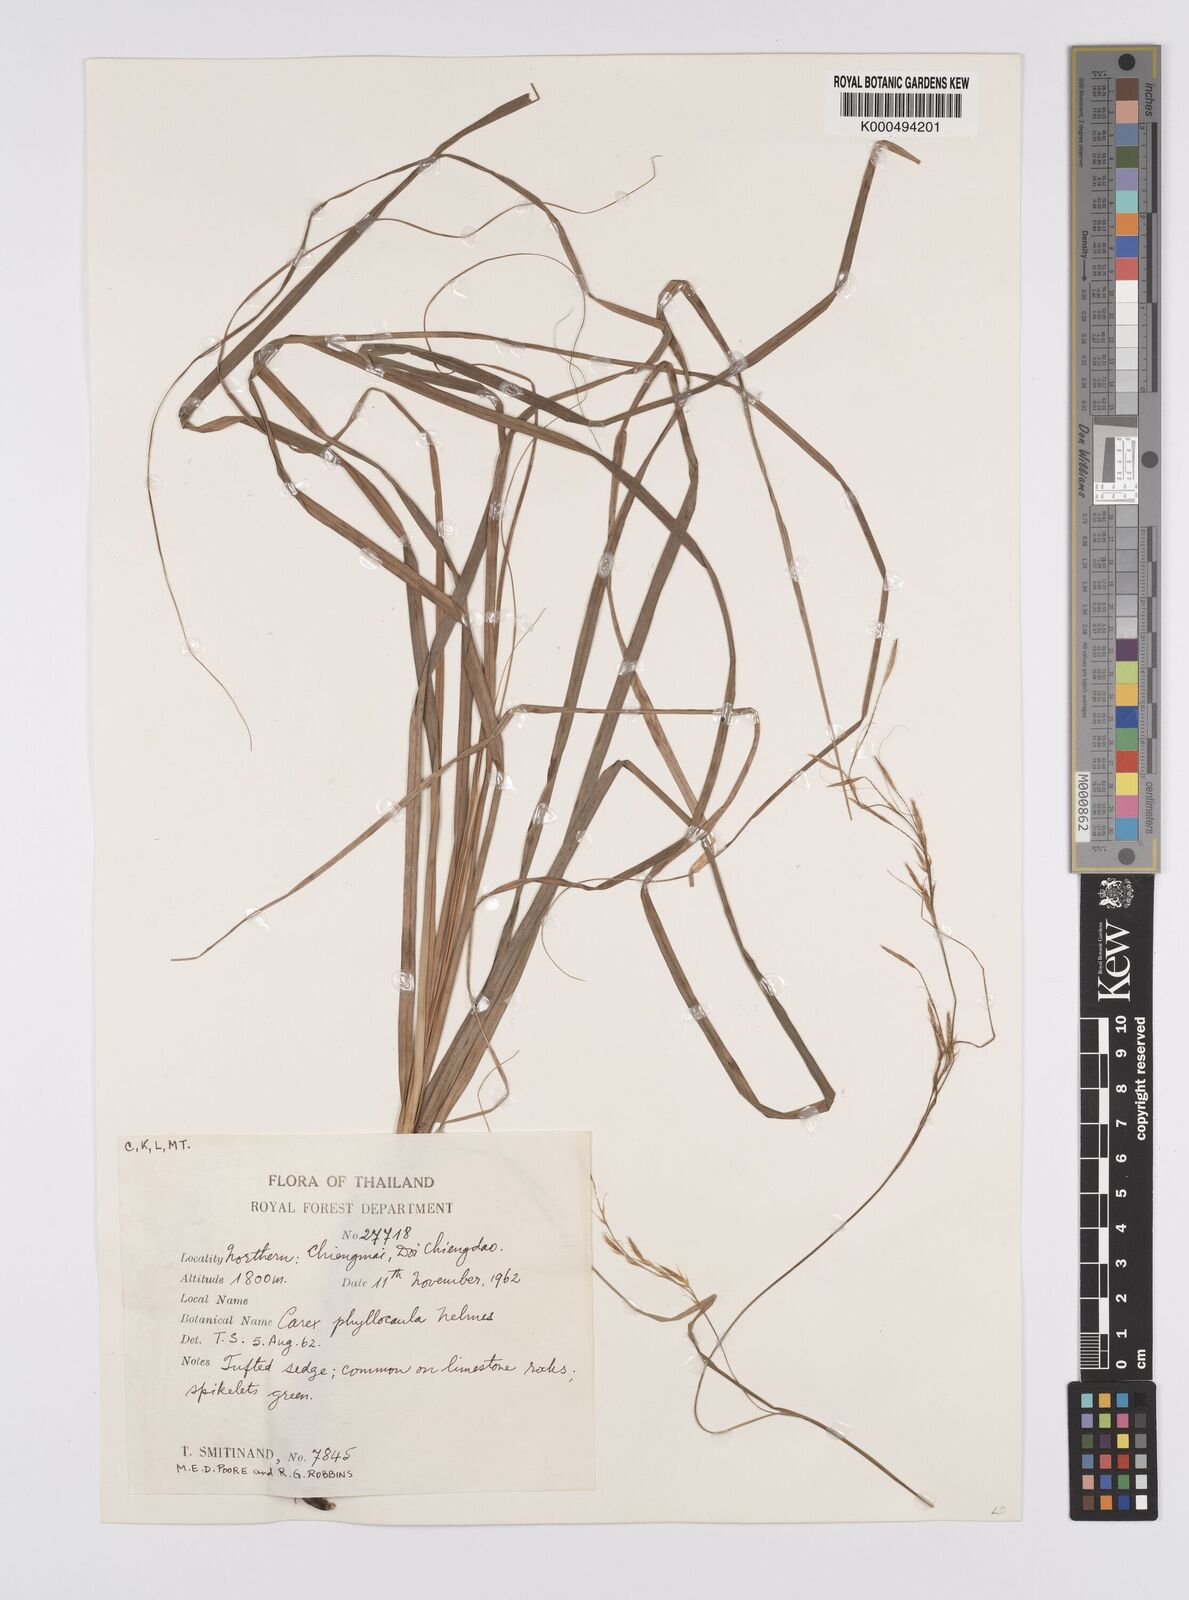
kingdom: Plantae
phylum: Tracheophyta
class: Liliopsida
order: Poales
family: Cyperaceae
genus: Carex
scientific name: Carex phyllocaula
